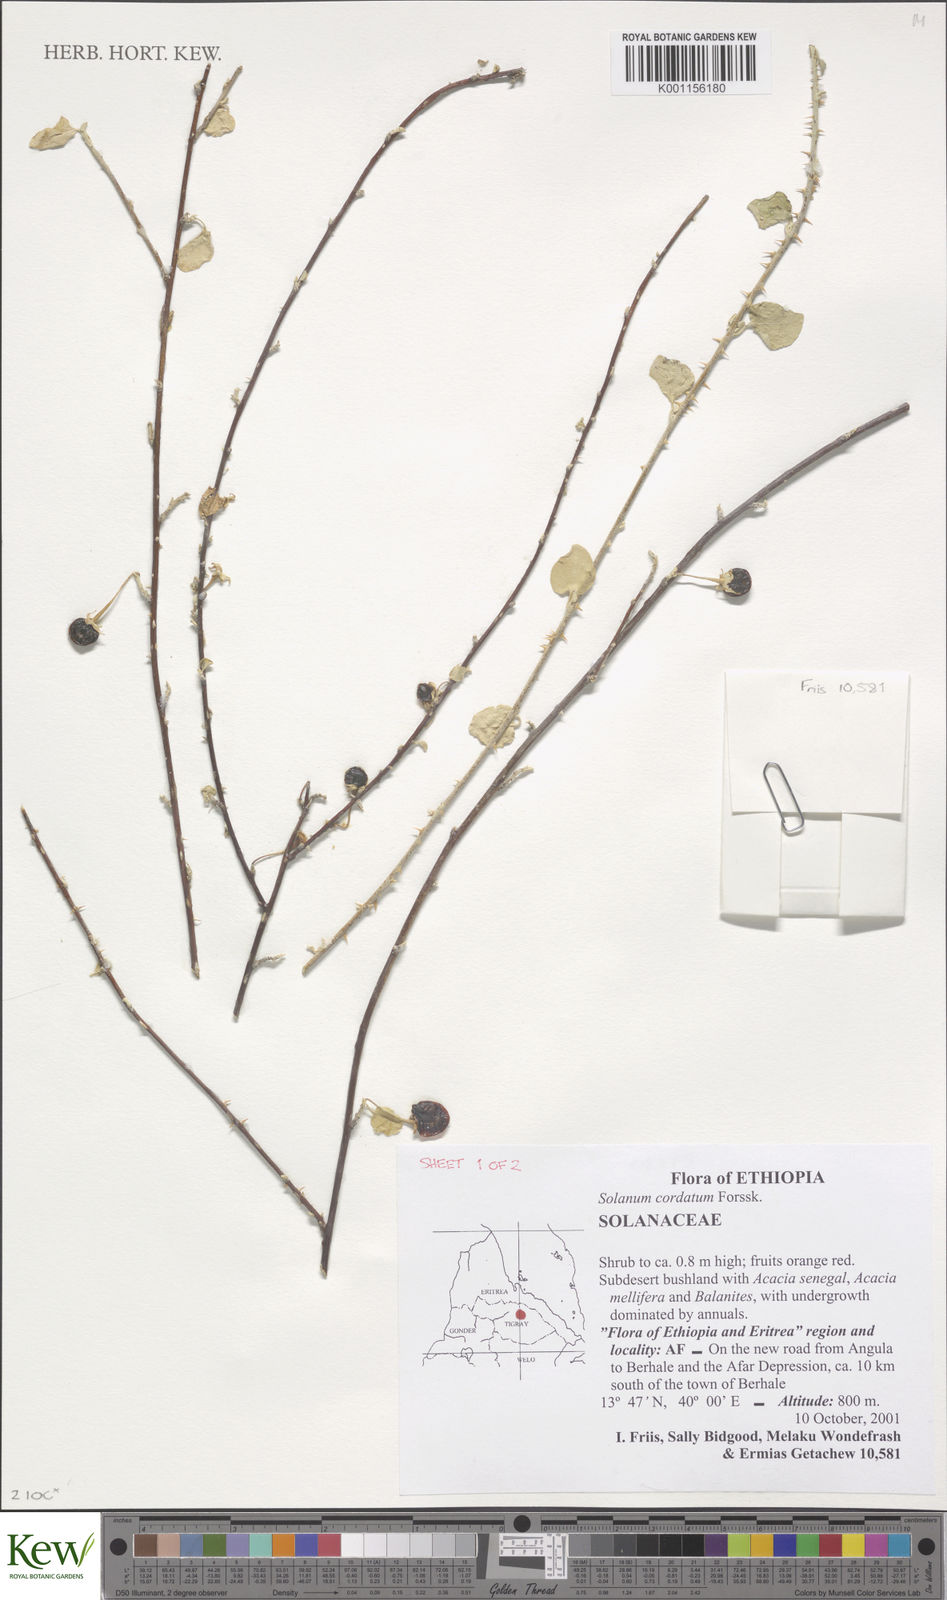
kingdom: Plantae
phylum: Tracheophyta
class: Magnoliopsida
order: Solanales
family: Solanaceae
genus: Solanum
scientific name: Solanum cordatum
